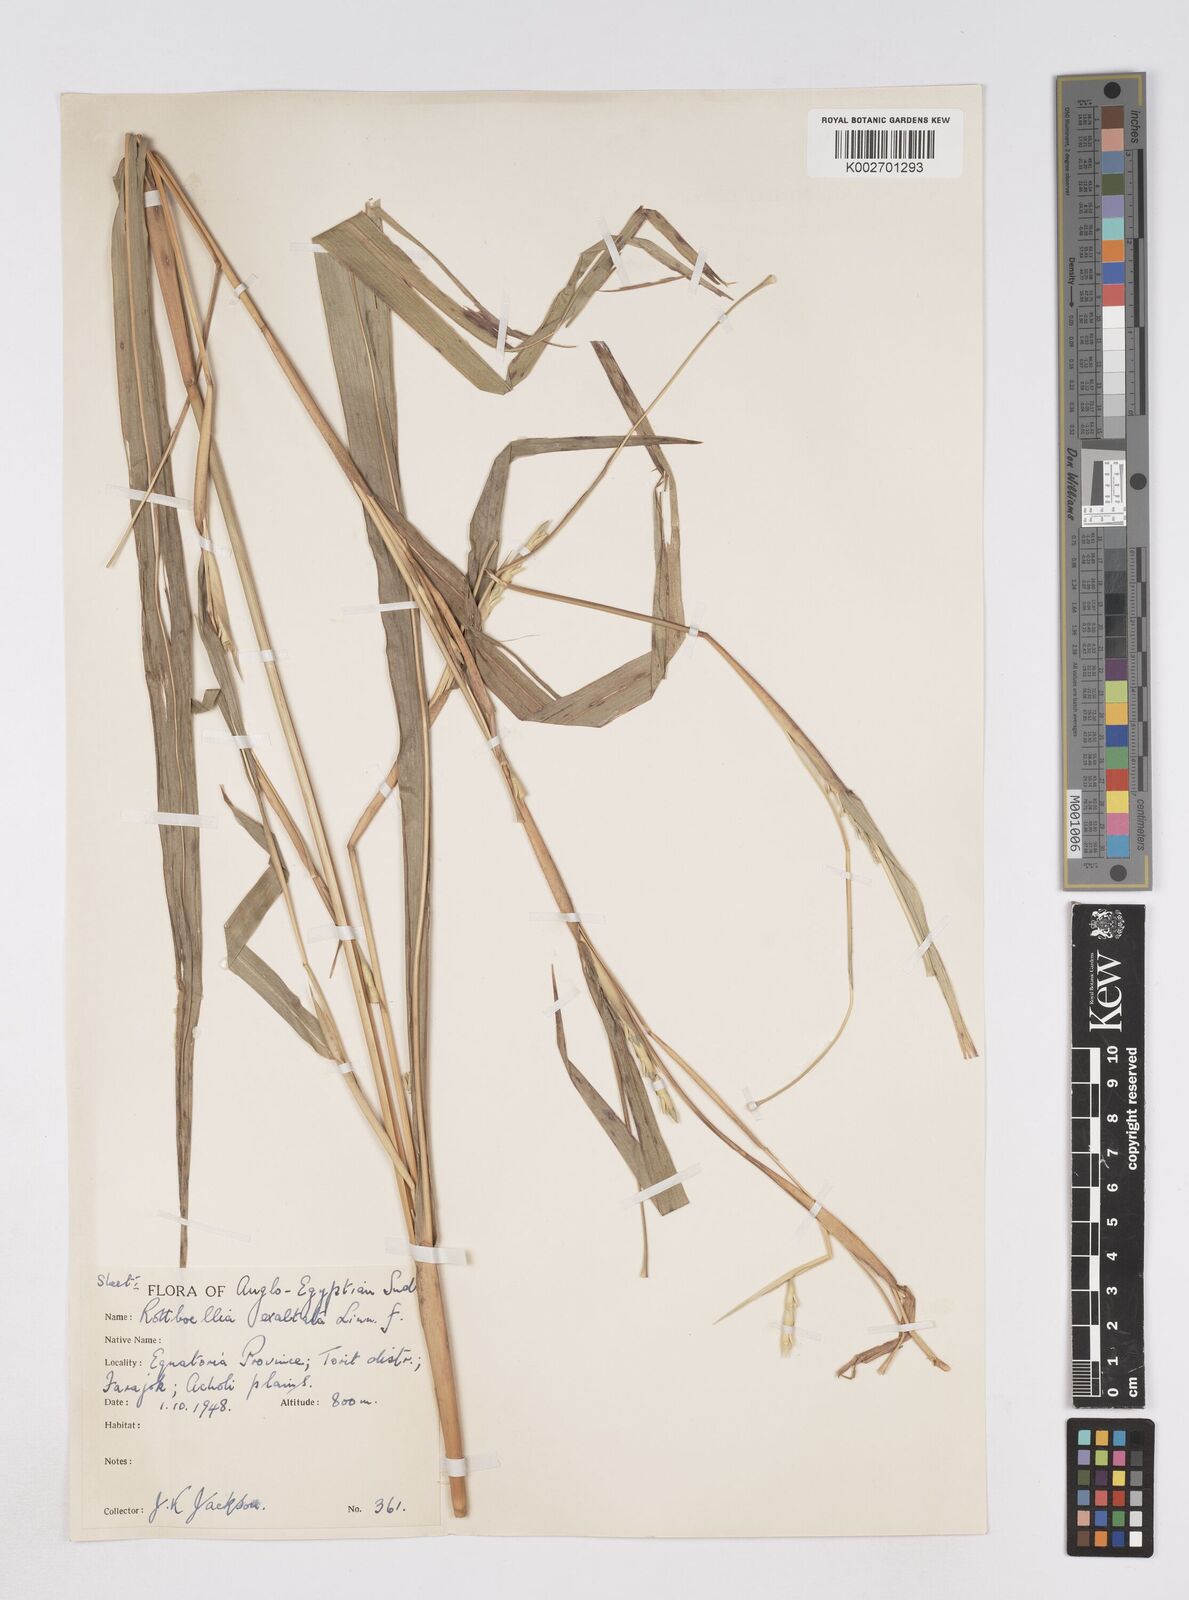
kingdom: Plantae
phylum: Tracheophyta
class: Liliopsida
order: Poales
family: Poaceae
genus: Rottboellia
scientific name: Rottboellia cochinchinensis
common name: Itchgrass
